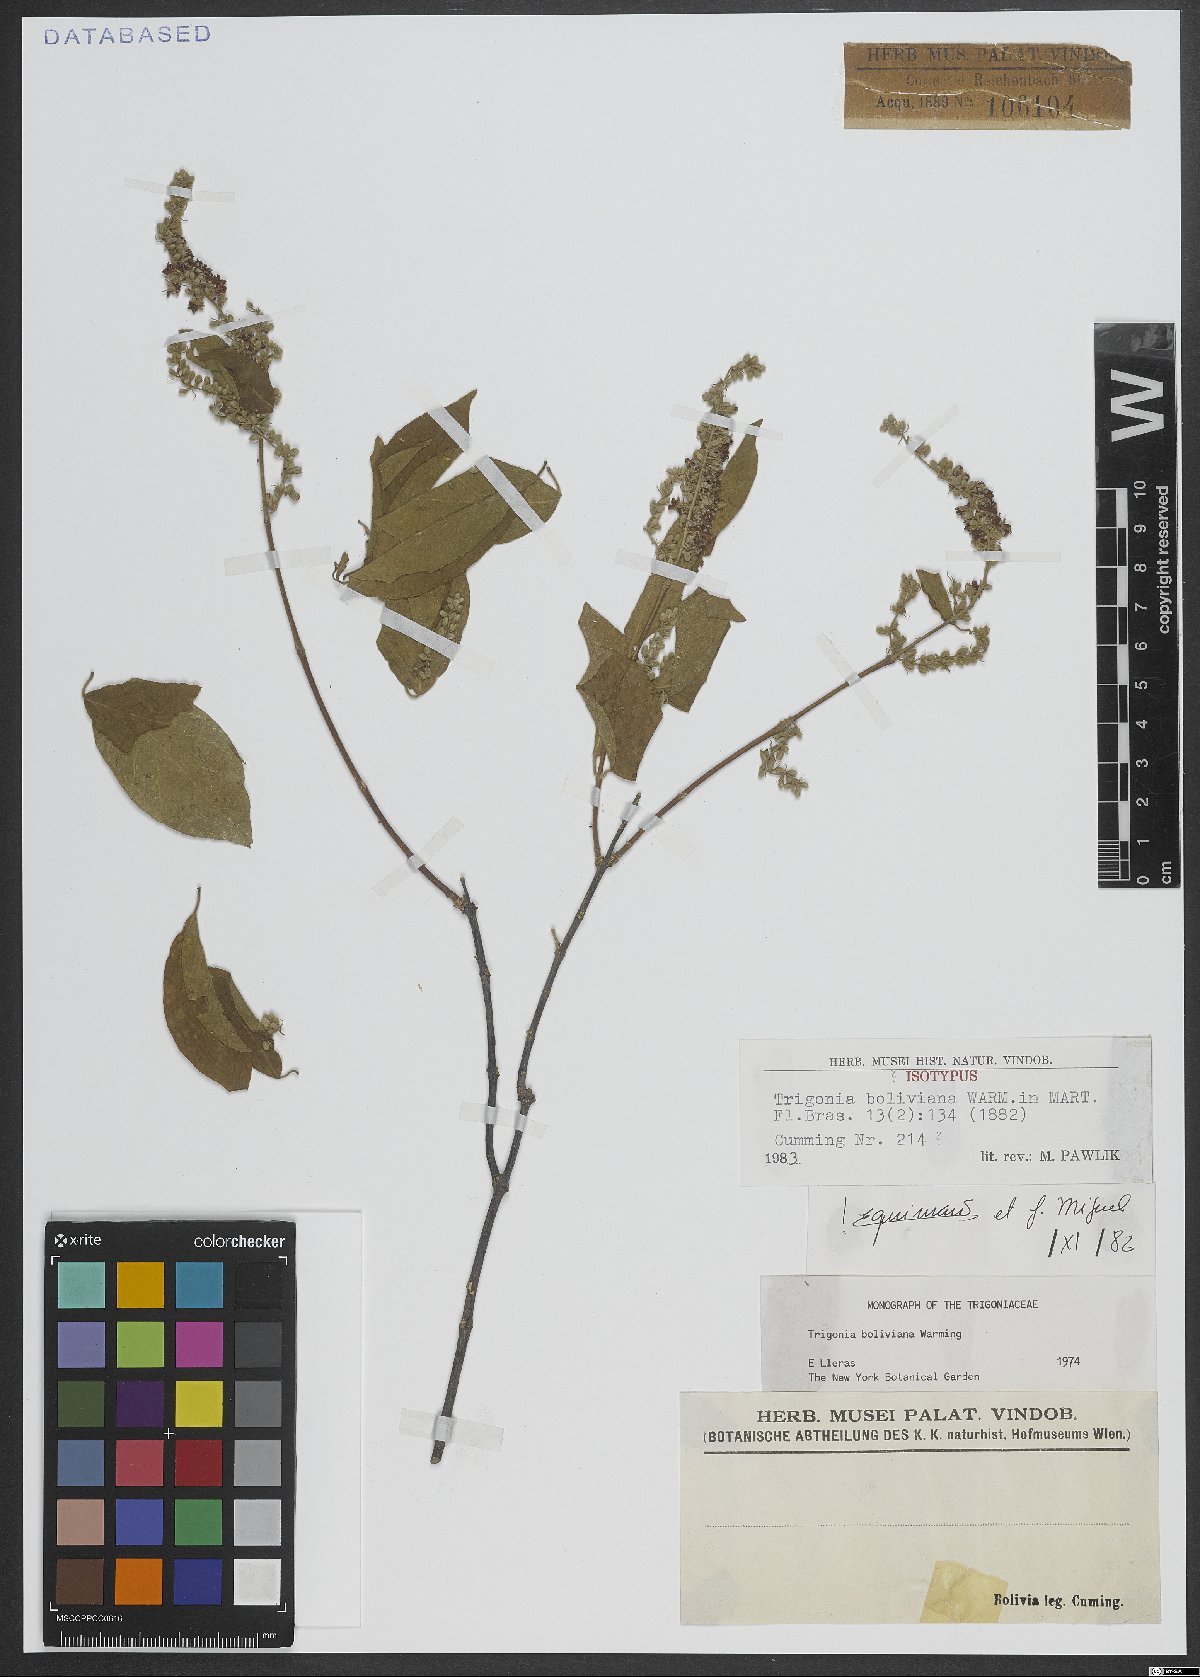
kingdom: Plantae
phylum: Tracheophyta
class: Magnoliopsida
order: Malpighiales
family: Trigoniaceae
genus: Trigonia
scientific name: Trigonia boliviana
